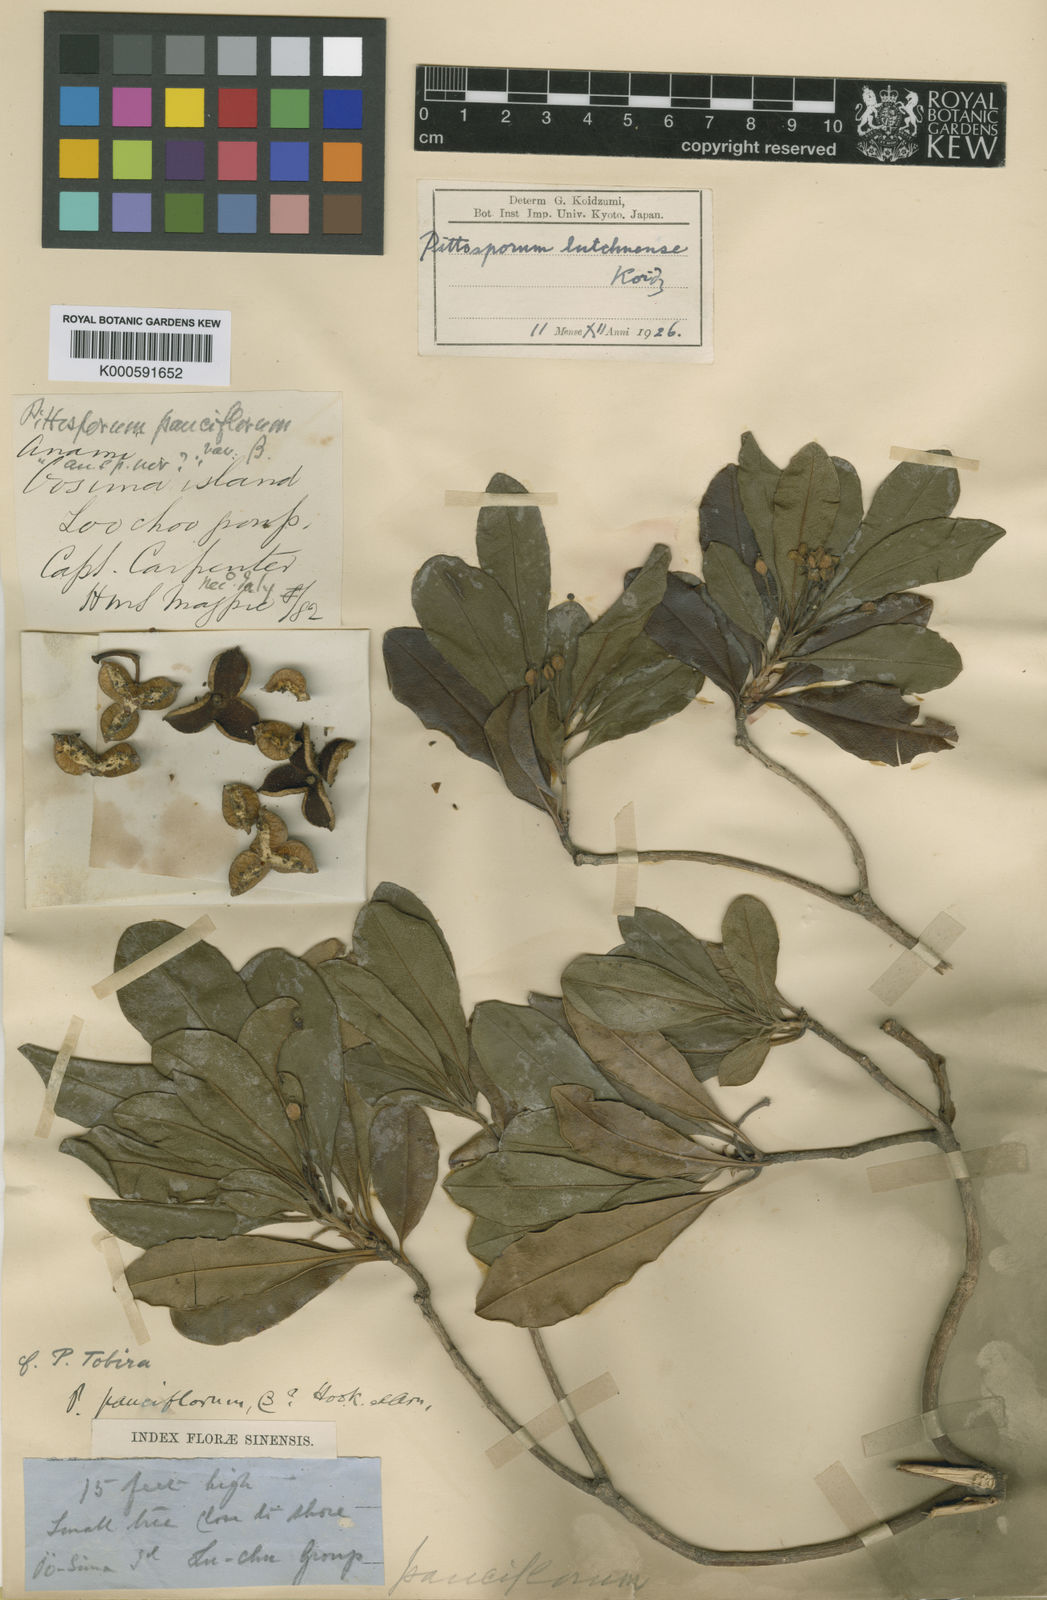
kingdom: Plantae
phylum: Tracheophyta
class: Magnoliopsida
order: Apiales
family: Pittosporaceae
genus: Pittosporum
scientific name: Pittosporum boninense
